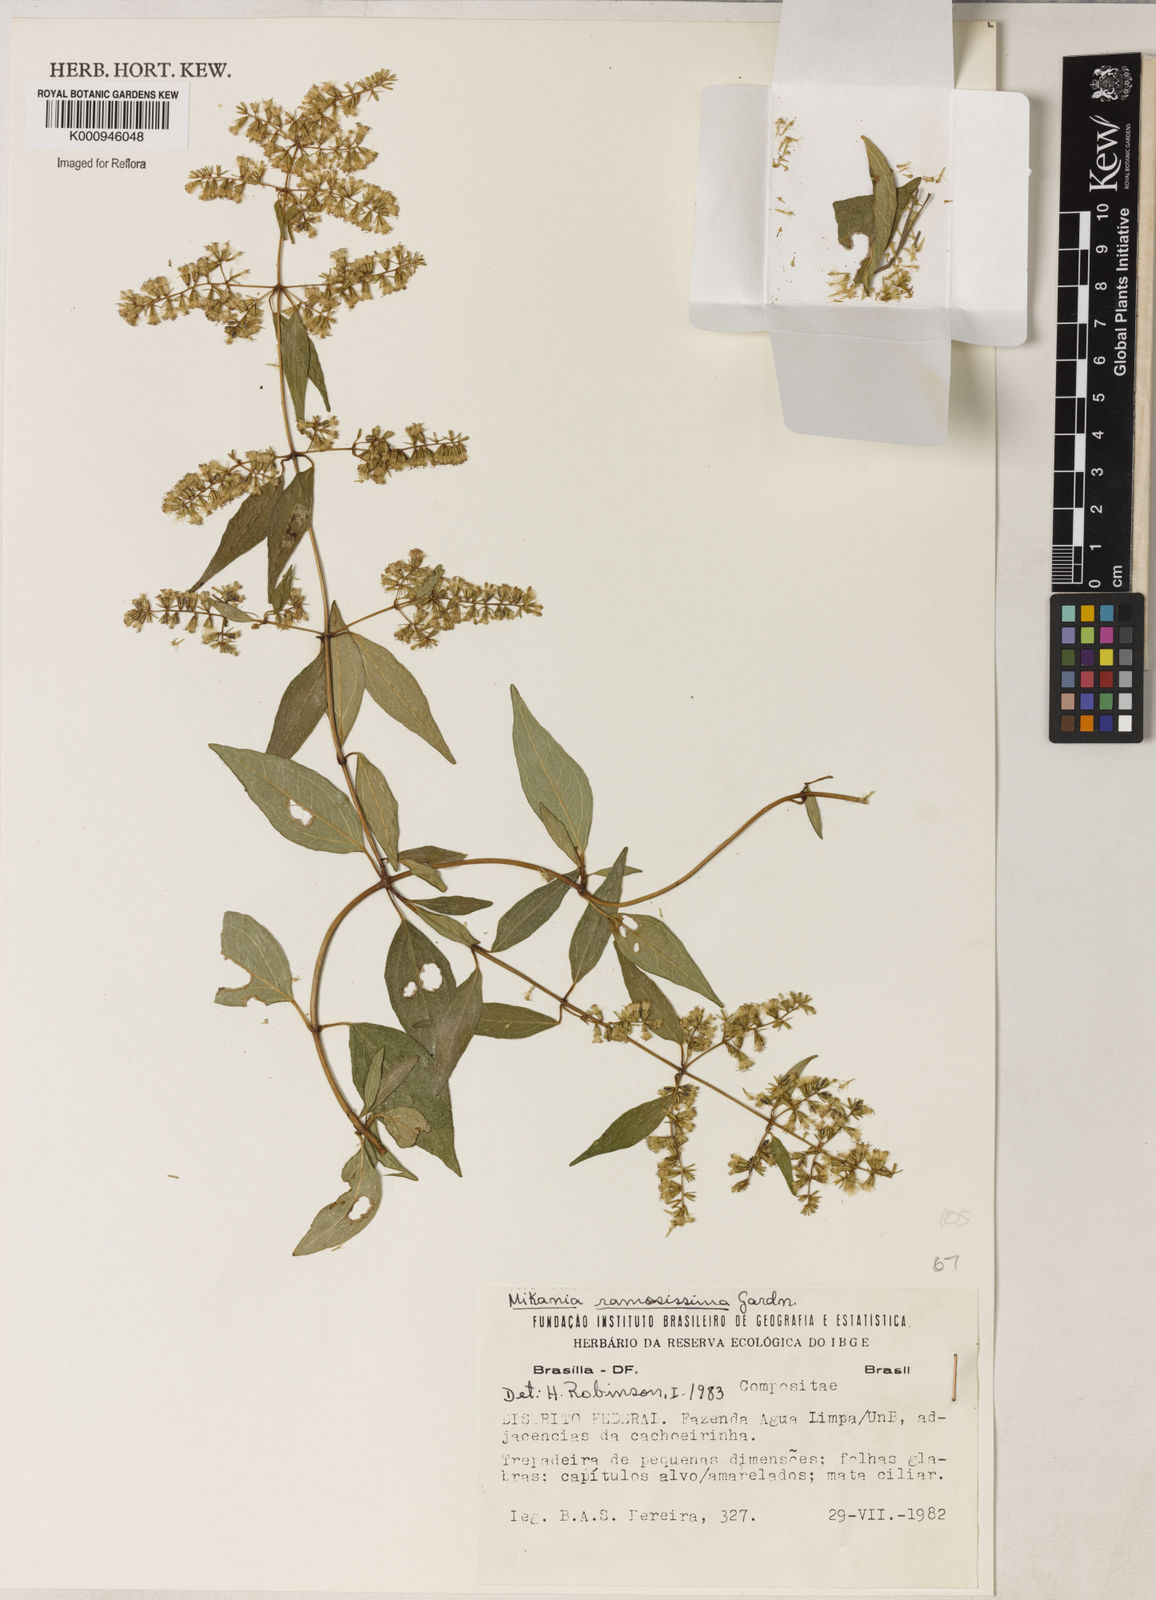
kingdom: Plantae
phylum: Tracheophyta
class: Magnoliopsida
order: Asterales
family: Asteraceae
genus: Mikania
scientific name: Mikania ramosissima
